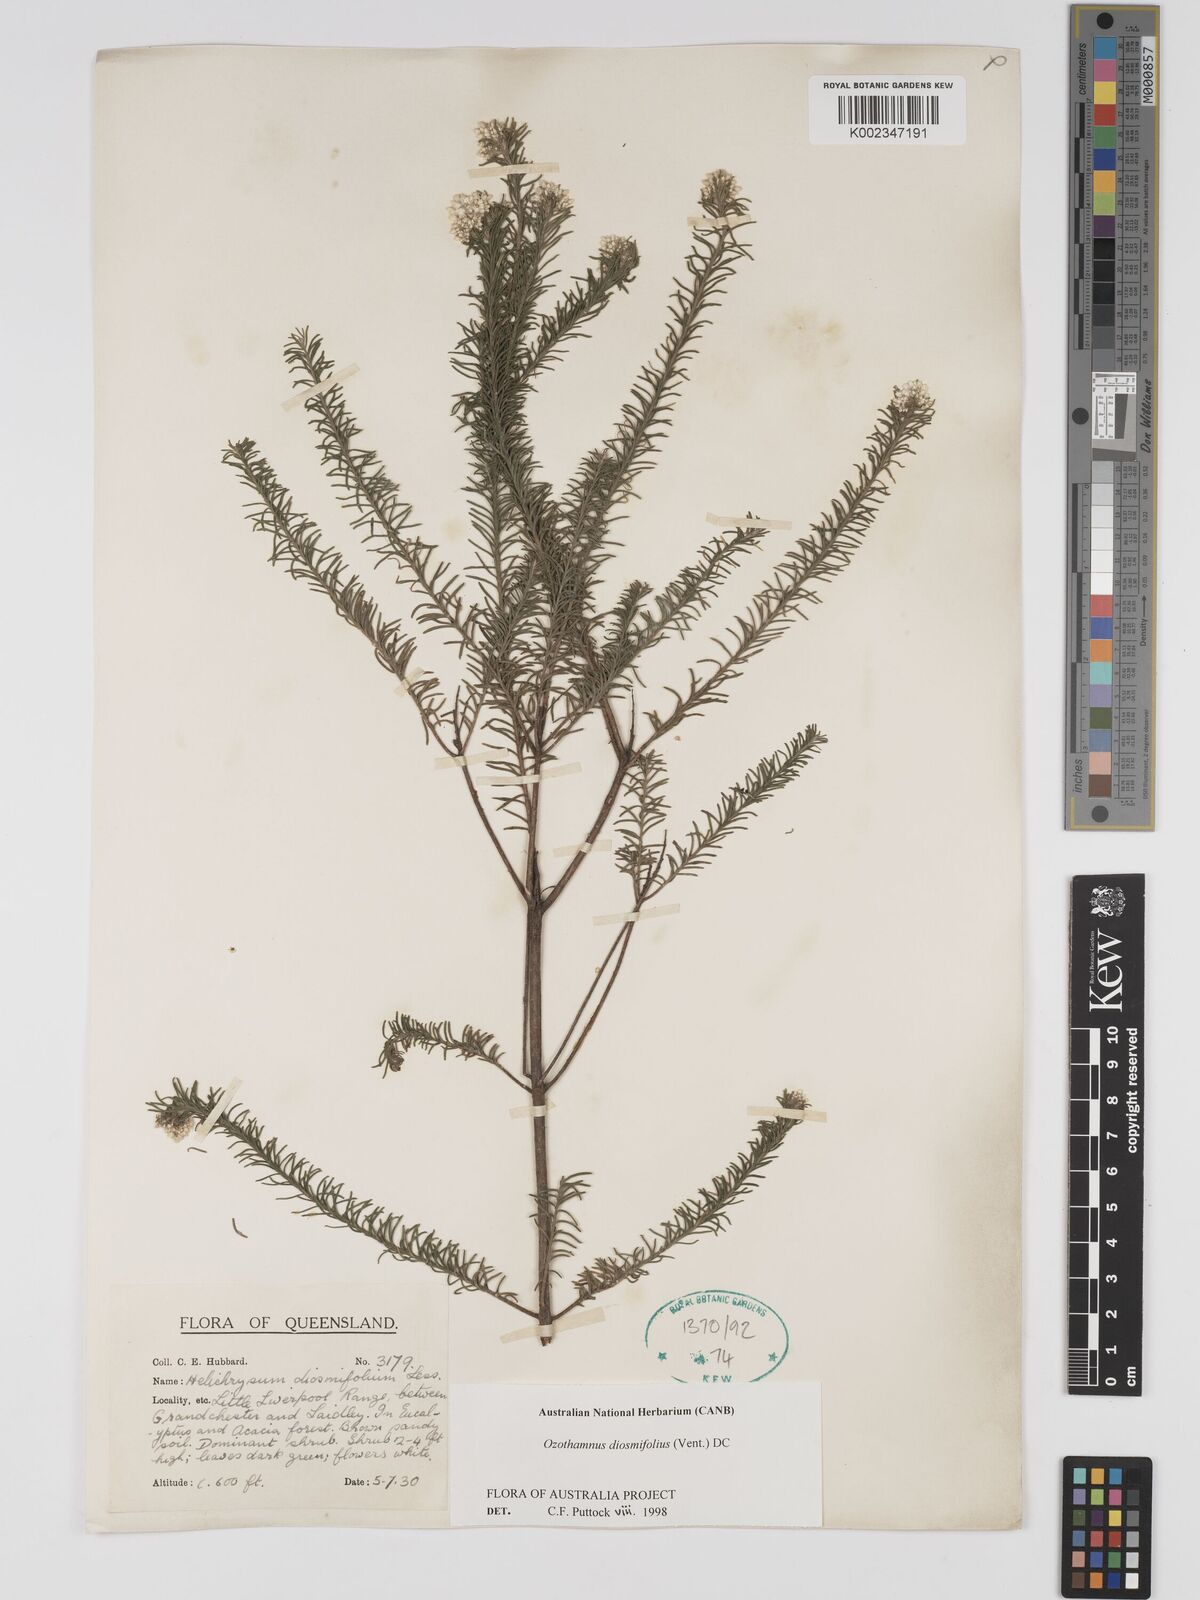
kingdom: Plantae
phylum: Tracheophyta
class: Magnoliopsida
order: Asterales
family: Asteraceae
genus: Ozothamnus
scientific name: Ozothamnus diosmifolius
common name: White-dogwood
